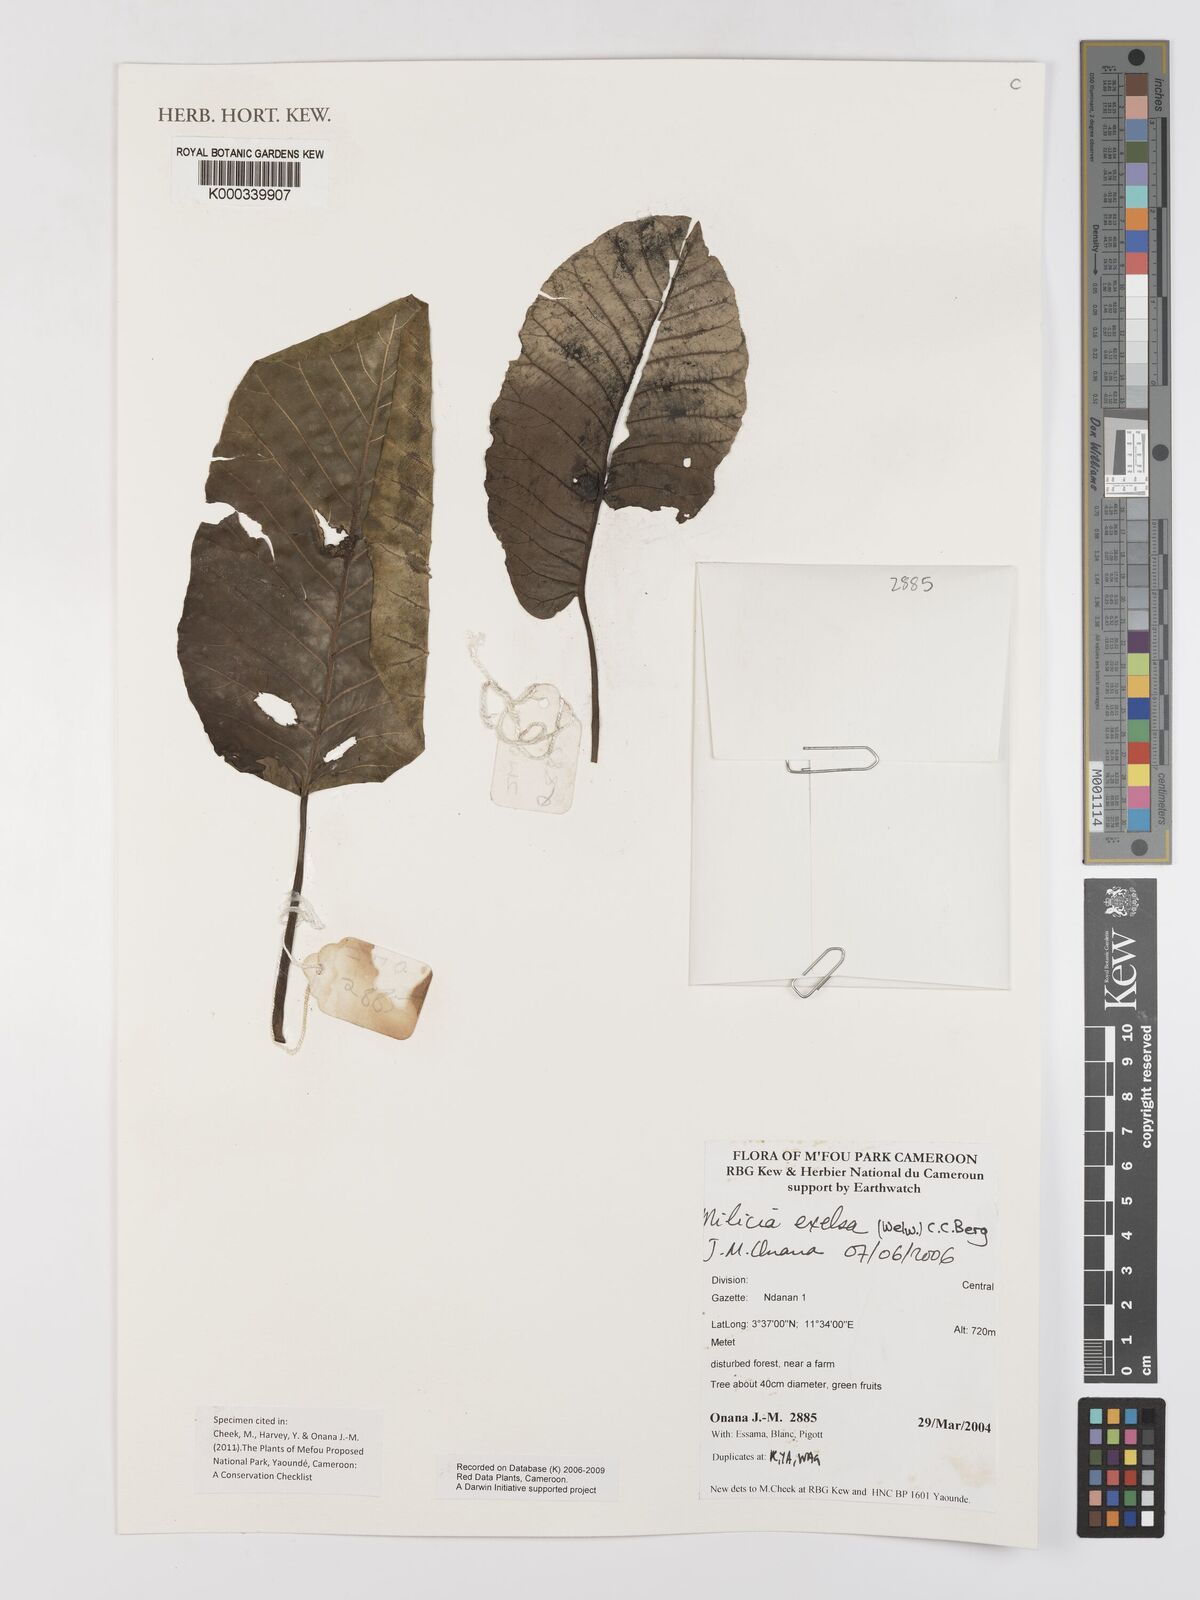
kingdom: Plantae
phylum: Tracheophyta
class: Magnoliopsida
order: Rosales
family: Moraceae
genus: Milicia
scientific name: Milicia excelsa
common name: African teak
